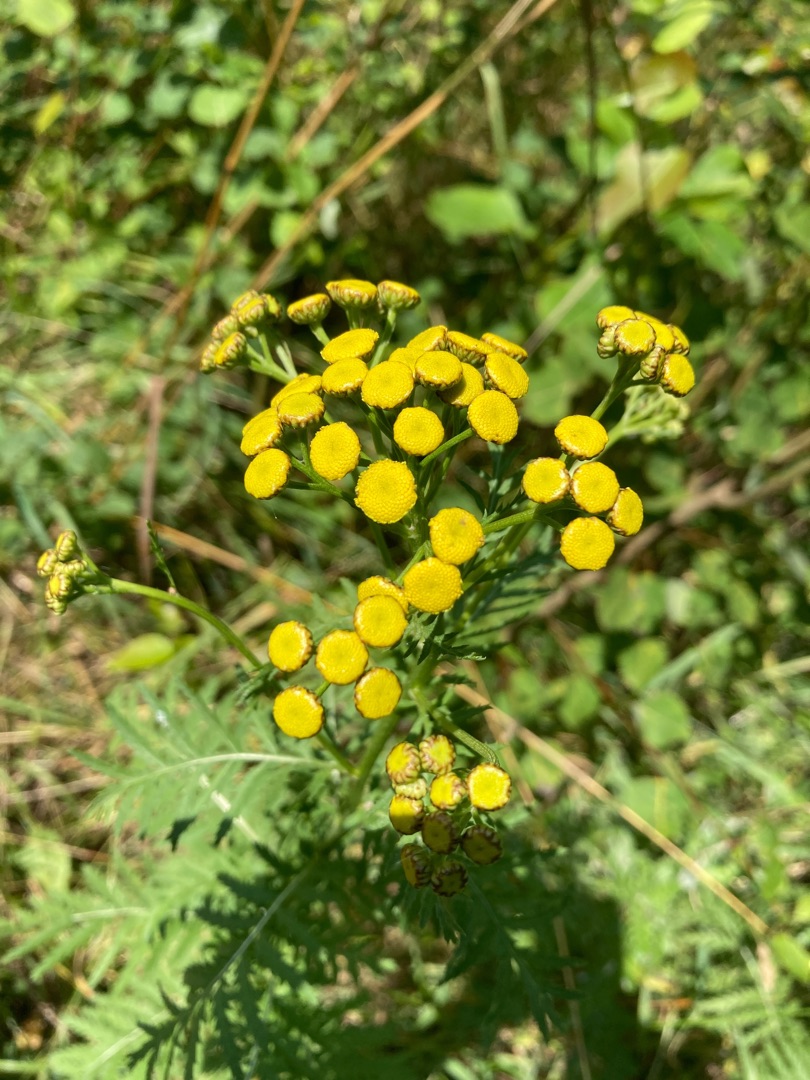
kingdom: Plantae
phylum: Tracheophyta
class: Magnoliopsida
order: Asterales
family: Asteraceae
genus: Tanacetum
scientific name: Tanacetum vulgare
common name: Rejnfan
